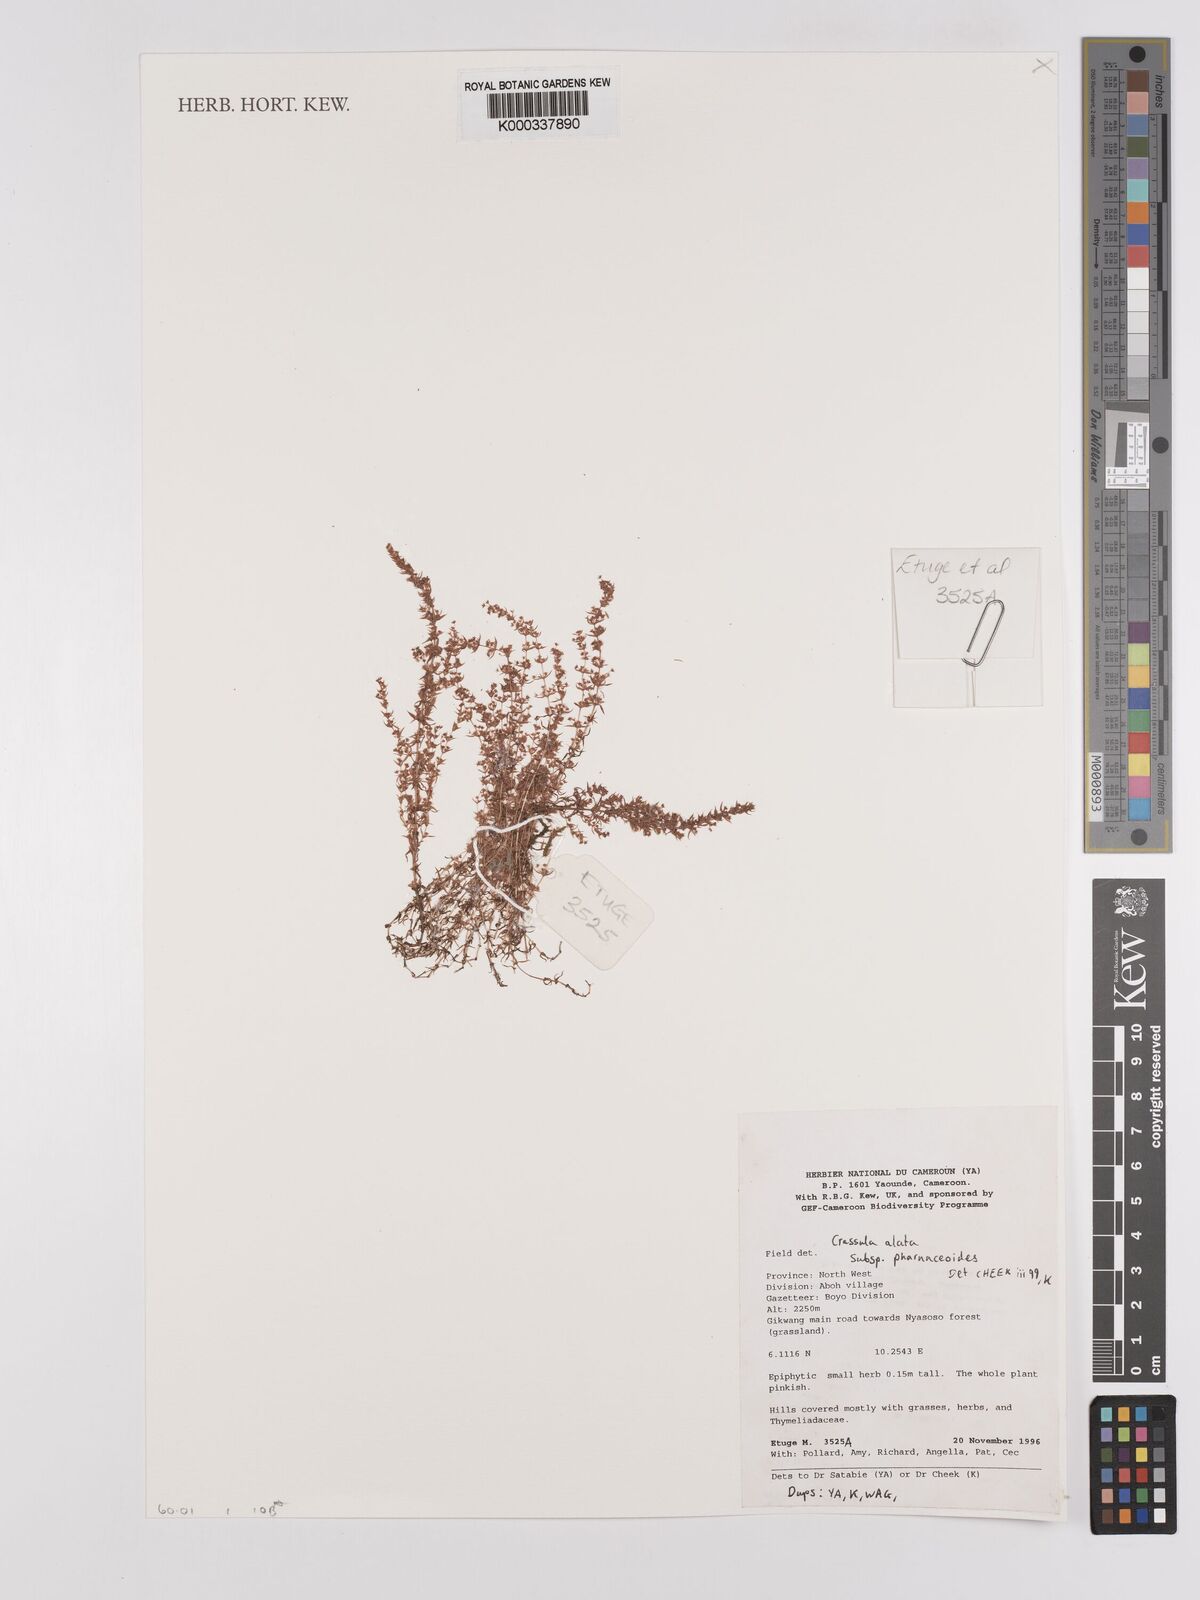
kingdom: Plantae
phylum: Tracheophyta
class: Magnoliopsida
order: Saxifragales
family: Crassulaceae
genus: Crassula
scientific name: Crassula alata
